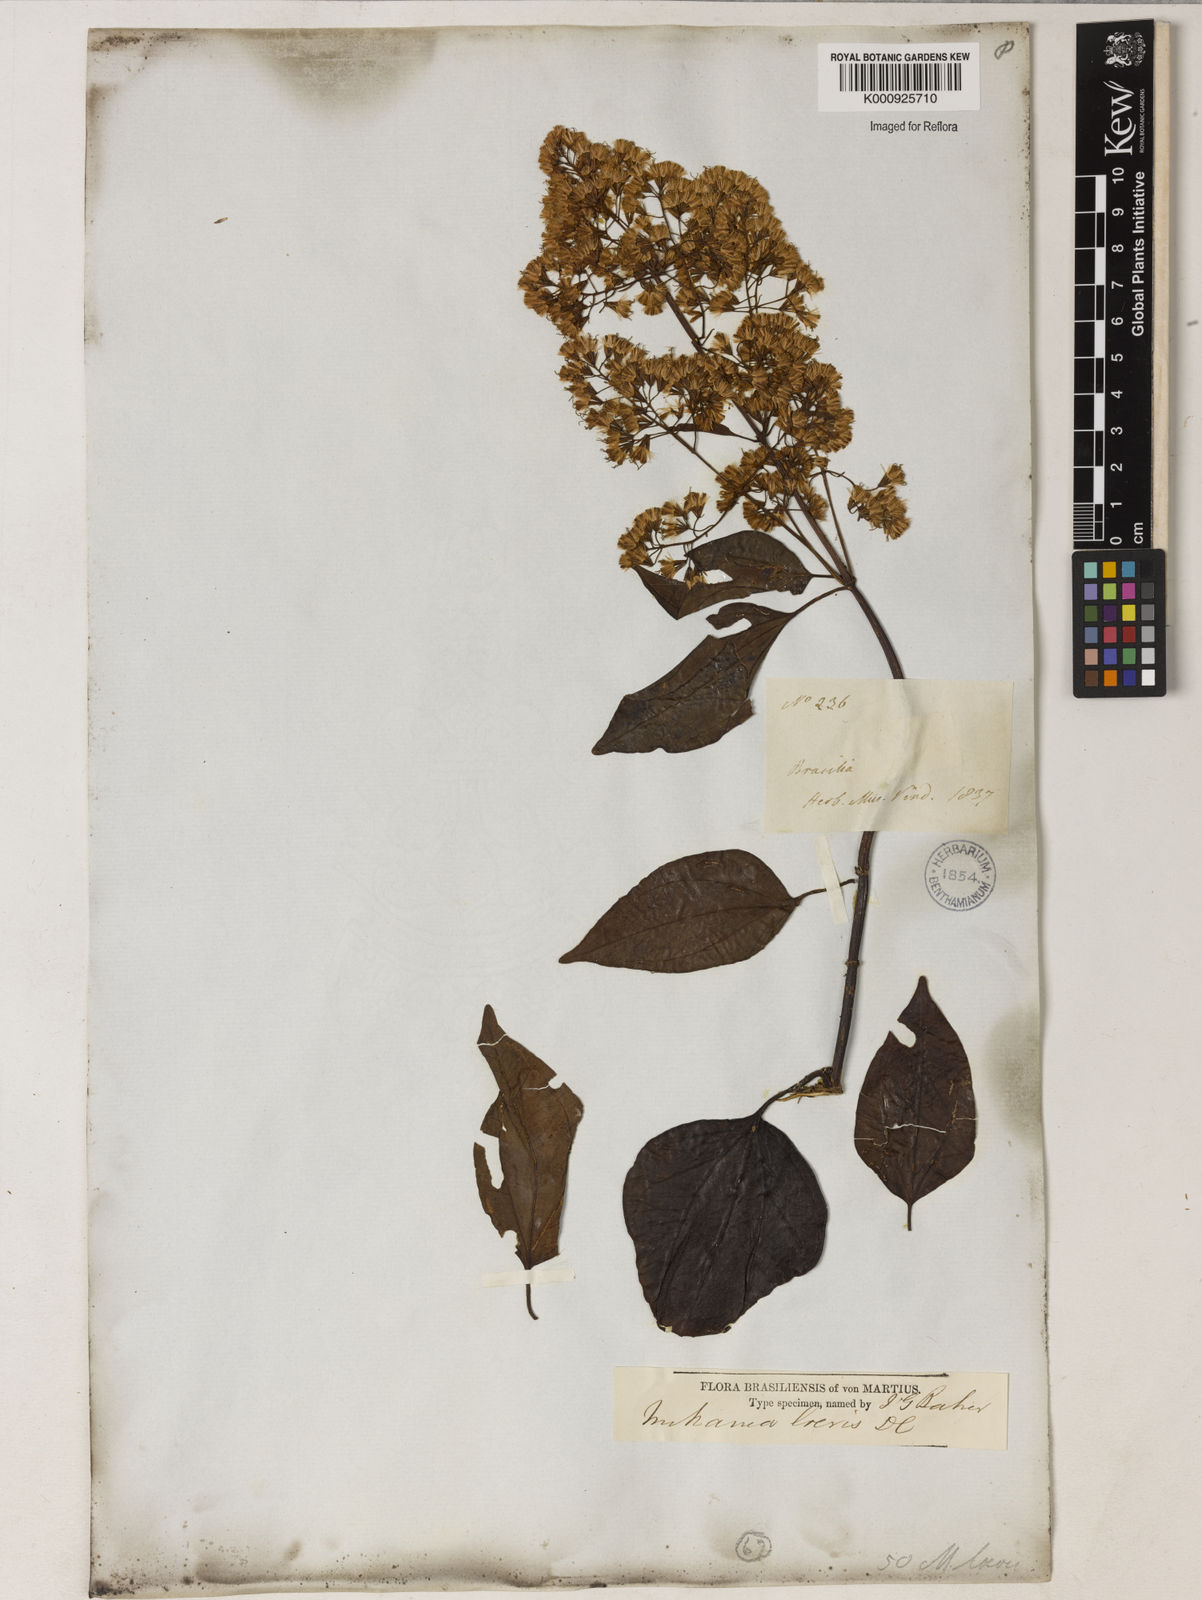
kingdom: Plantae
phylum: Tracheophyta
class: Magnoliopsida
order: Asterales
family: Asteraceae
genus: Mikania
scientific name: Mikania trinervis
